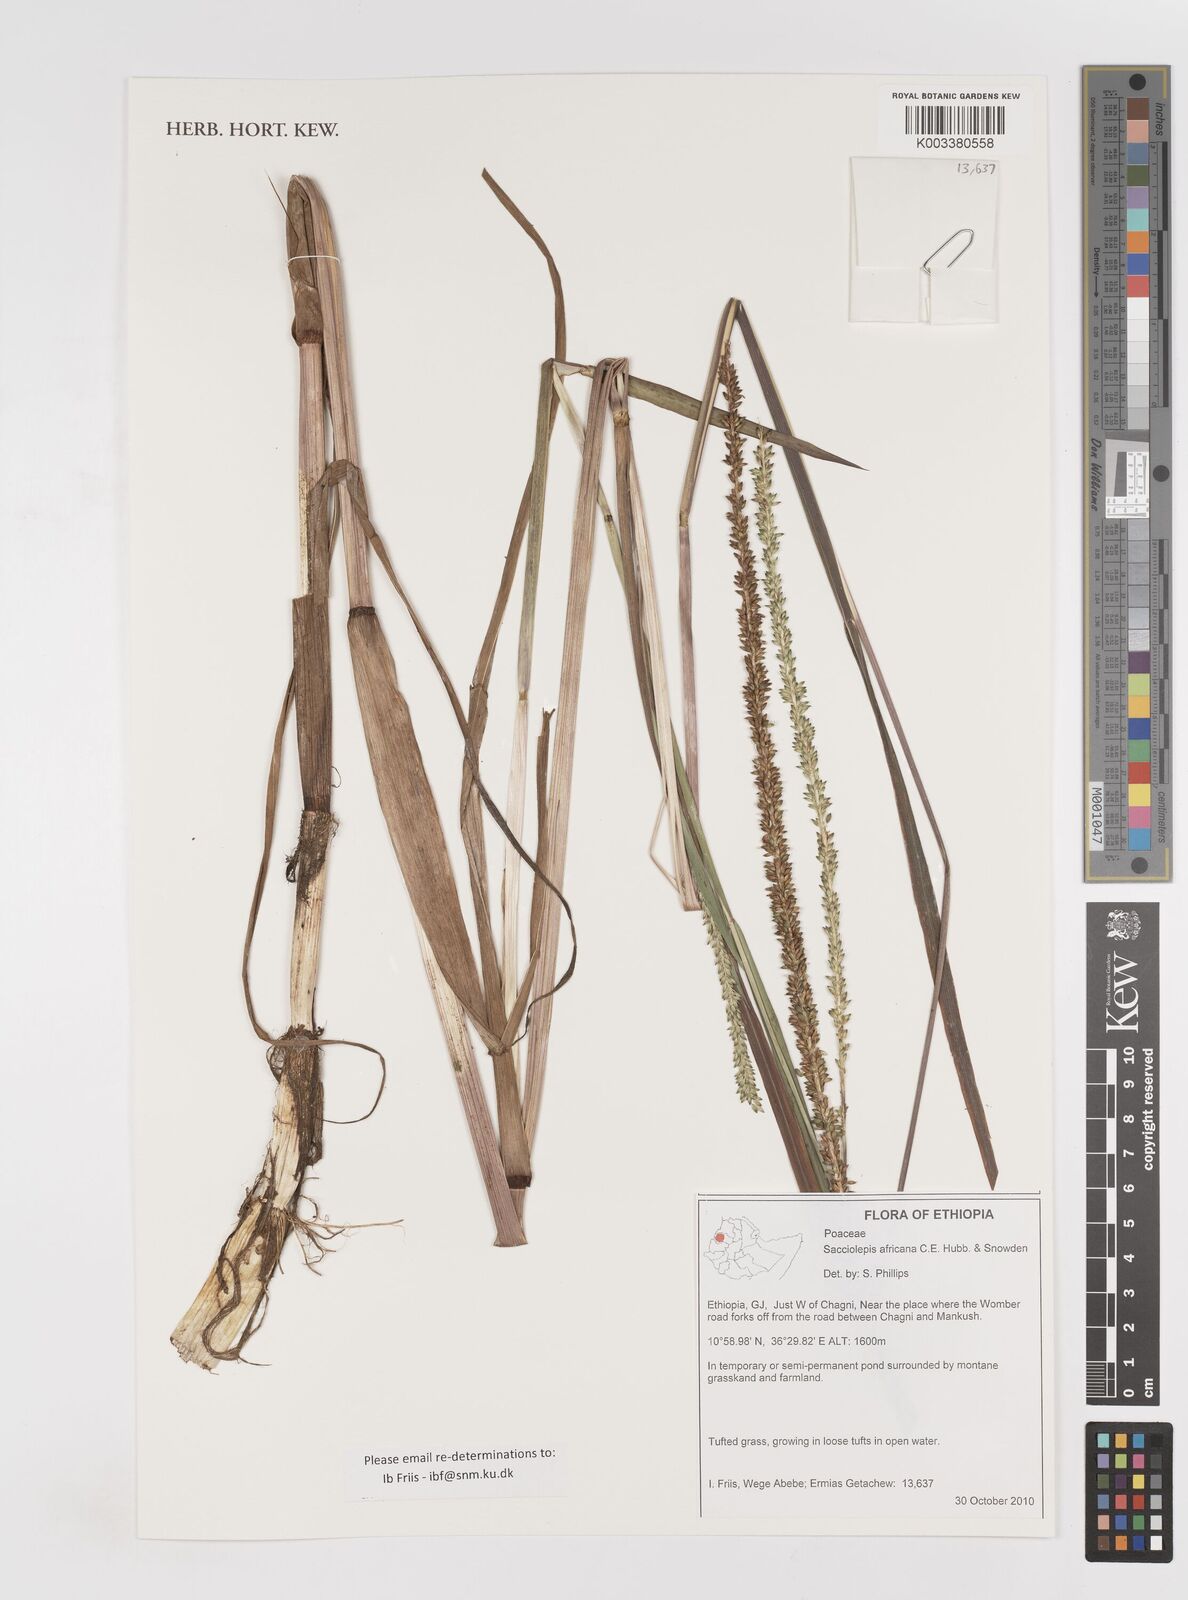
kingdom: Plantae
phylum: Tracheophyta
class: Liliopsida
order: Poales
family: Poaceae
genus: Sacciolepis
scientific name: Sacciolepis africana
